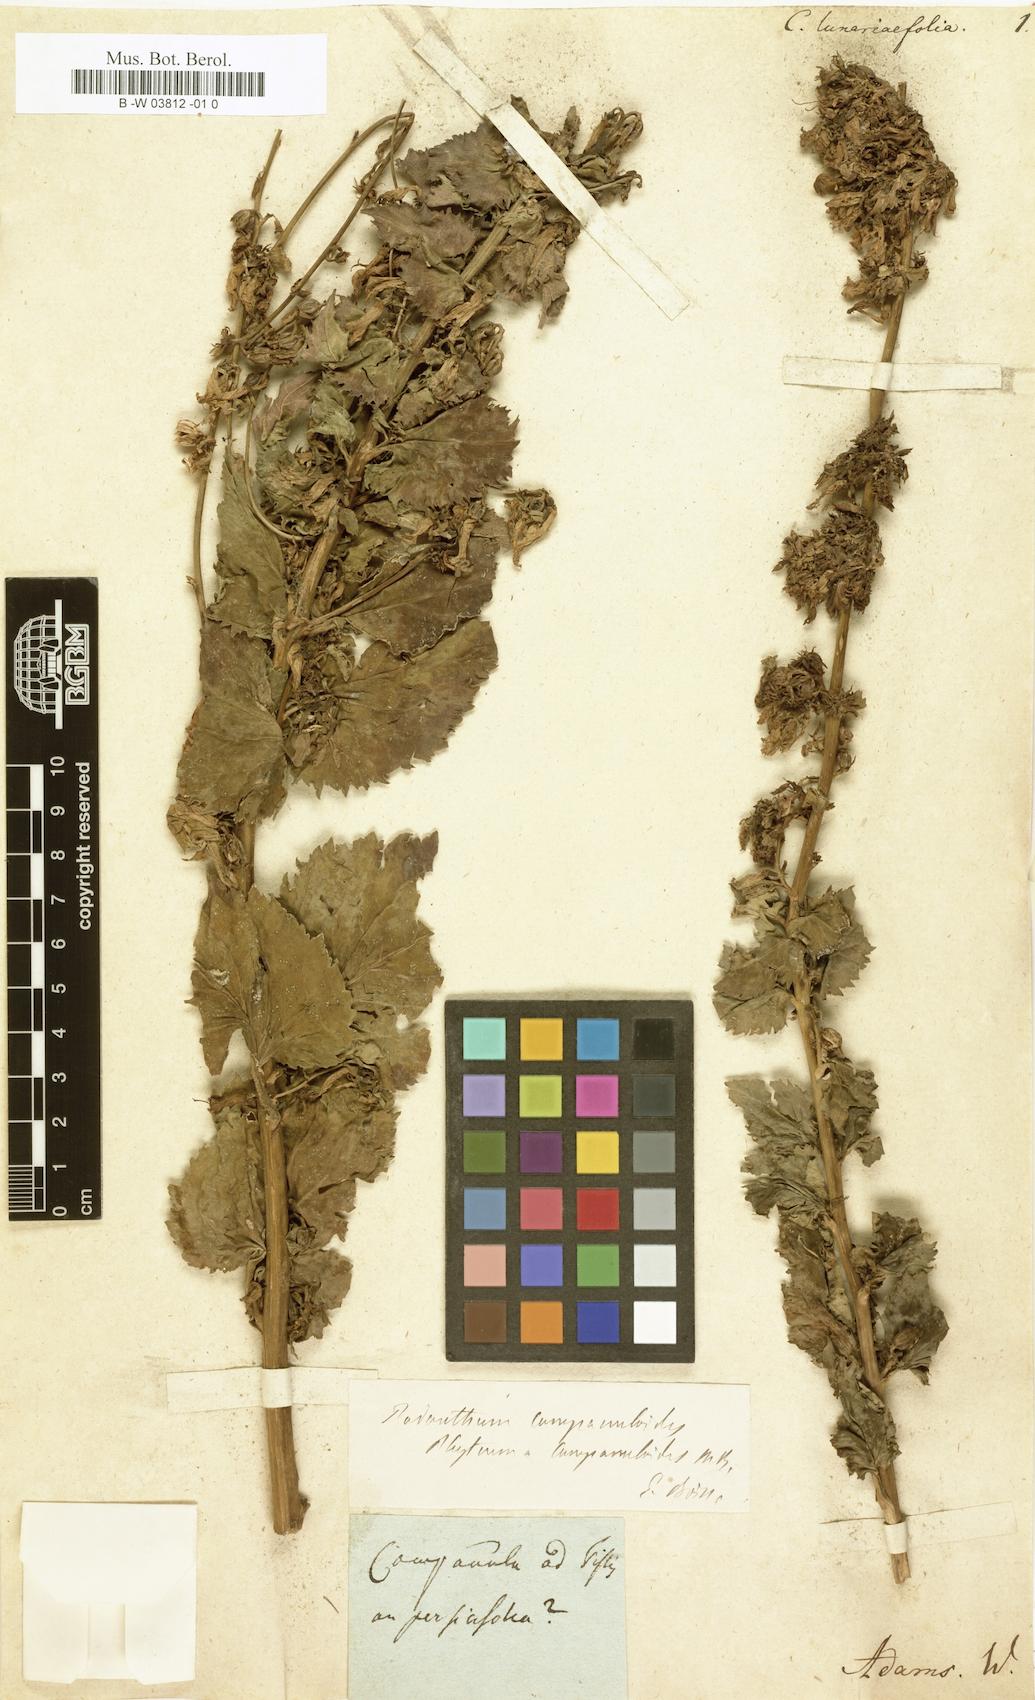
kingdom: Plantae
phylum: Tracheophyta
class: Magnoliopsida
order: Asterales
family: Campanulaceae
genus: Campanula
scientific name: Campanula rapunculoides
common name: Creeping bellflower
